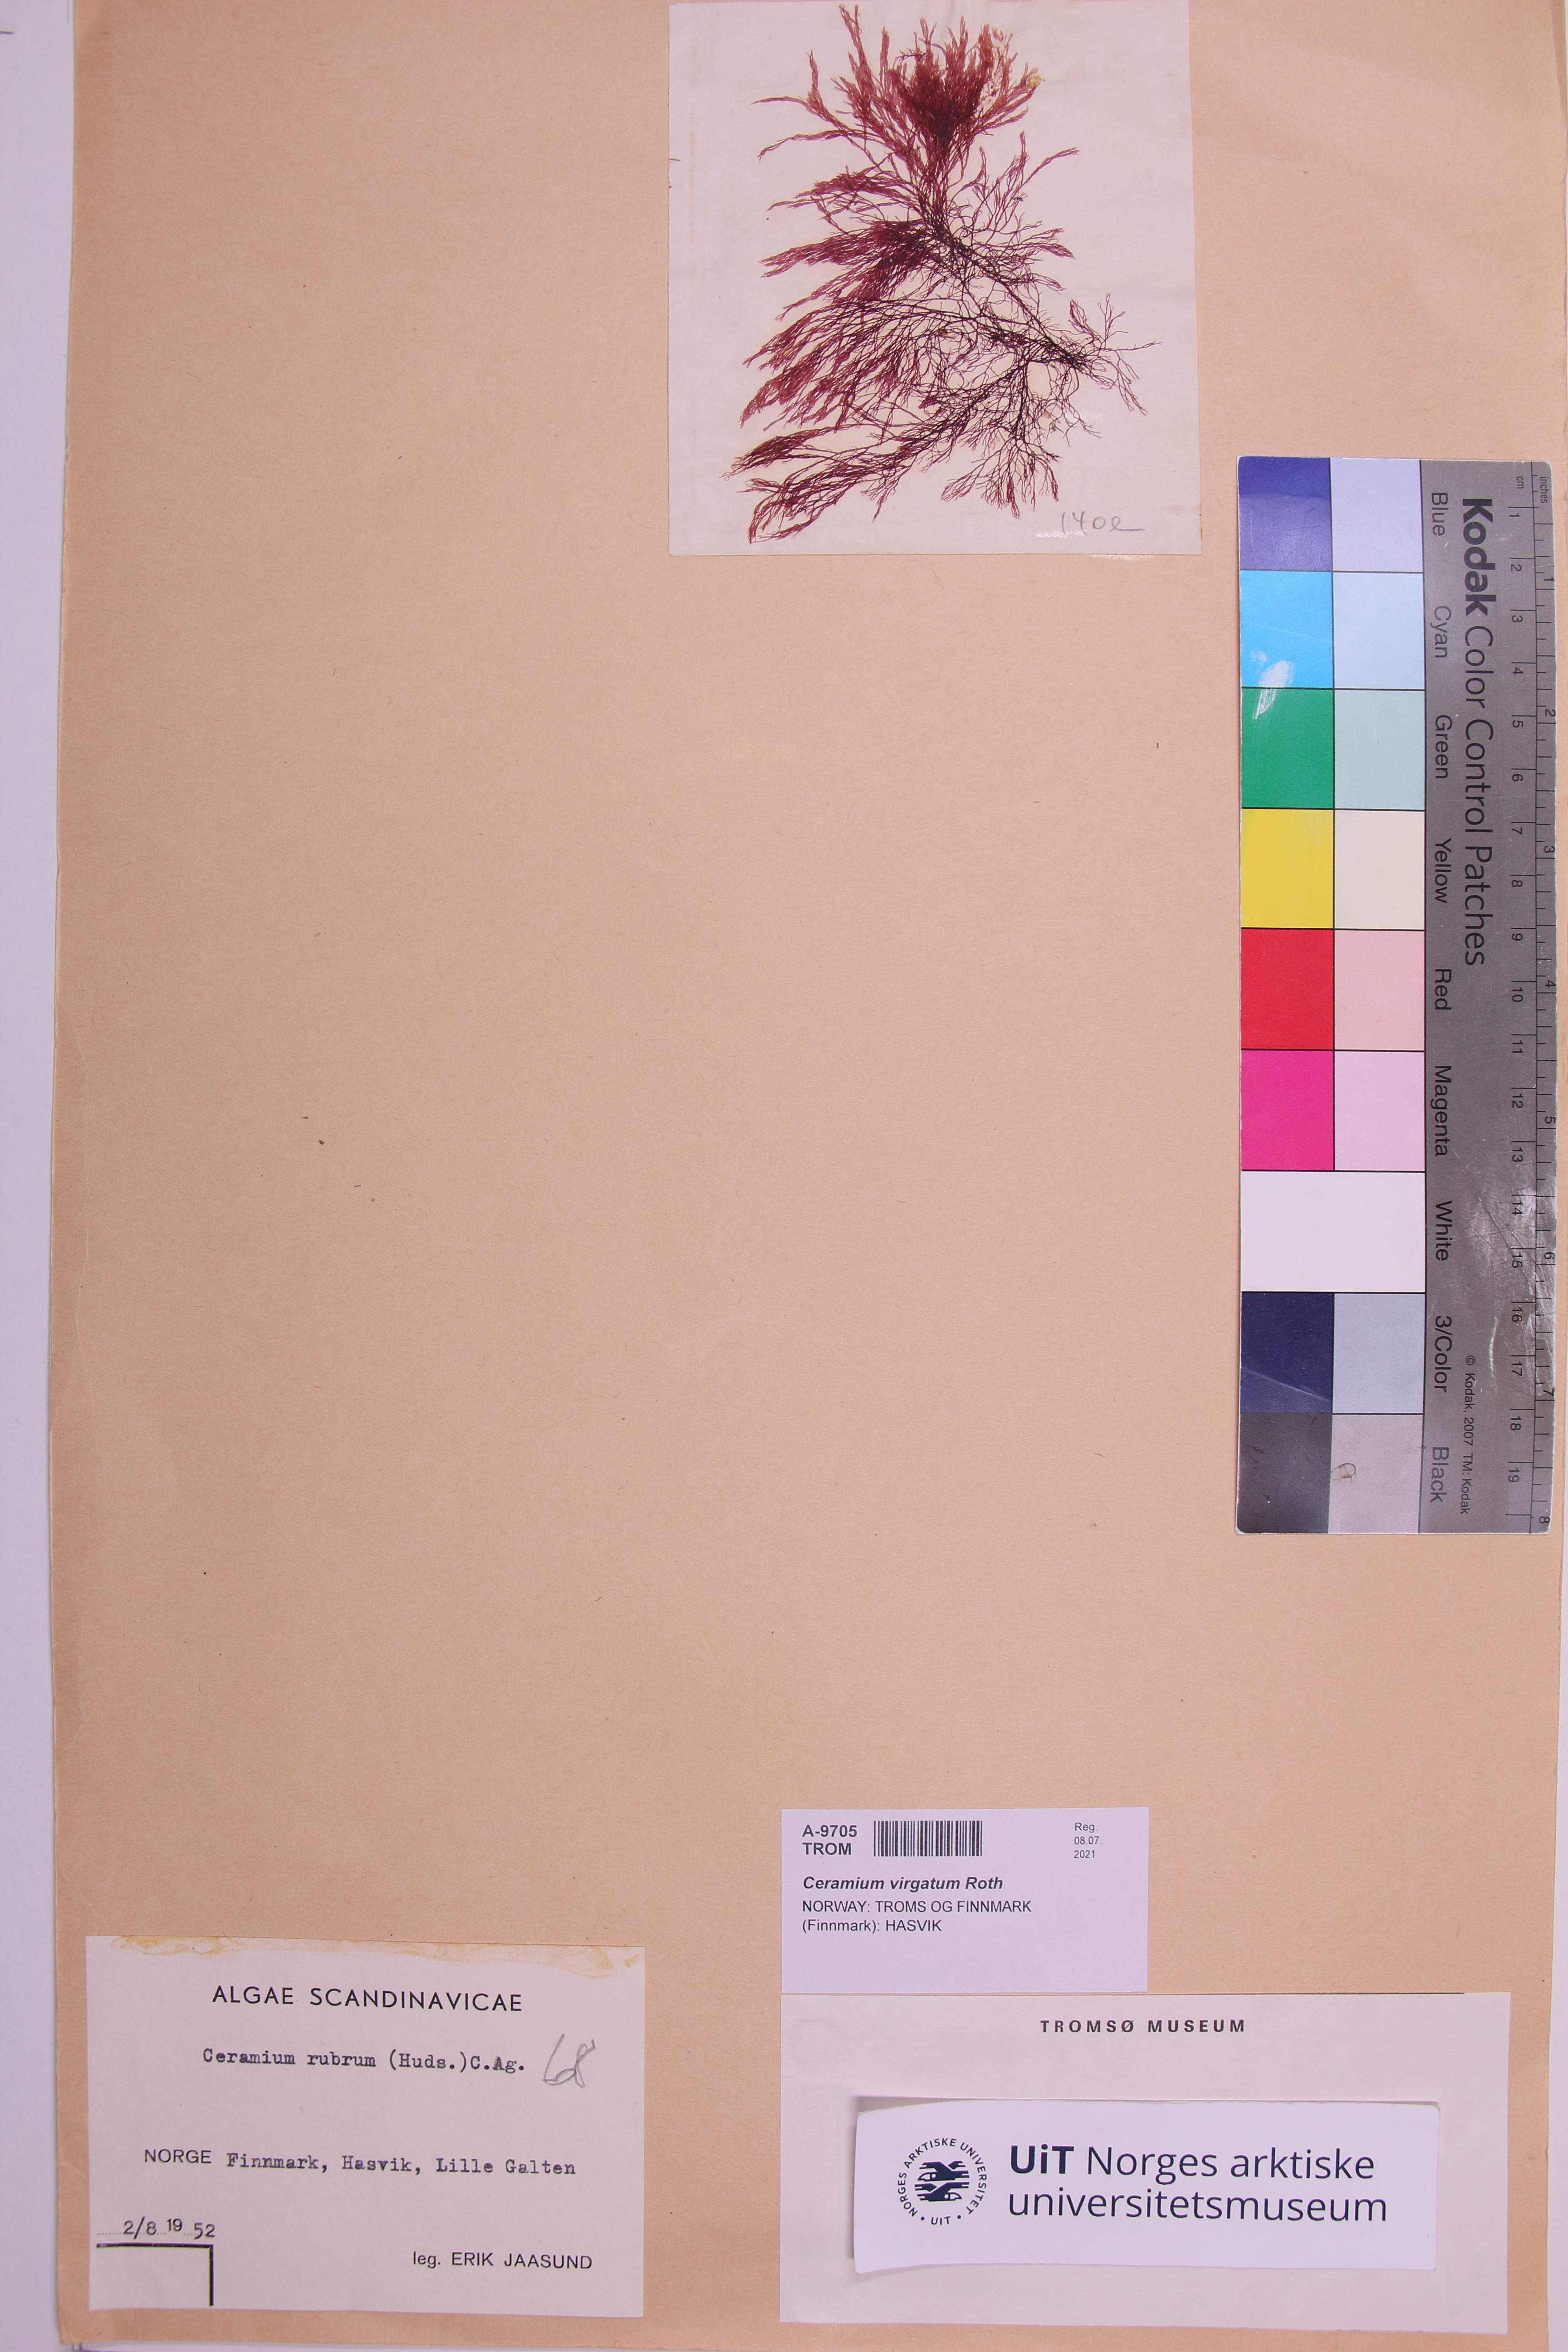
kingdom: Plantae
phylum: Rhodophyta
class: Florideophyceae
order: Ceramiales
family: Ceramiaceae
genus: Ceramium
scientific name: Ceramium virgatum
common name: Red hornweed
